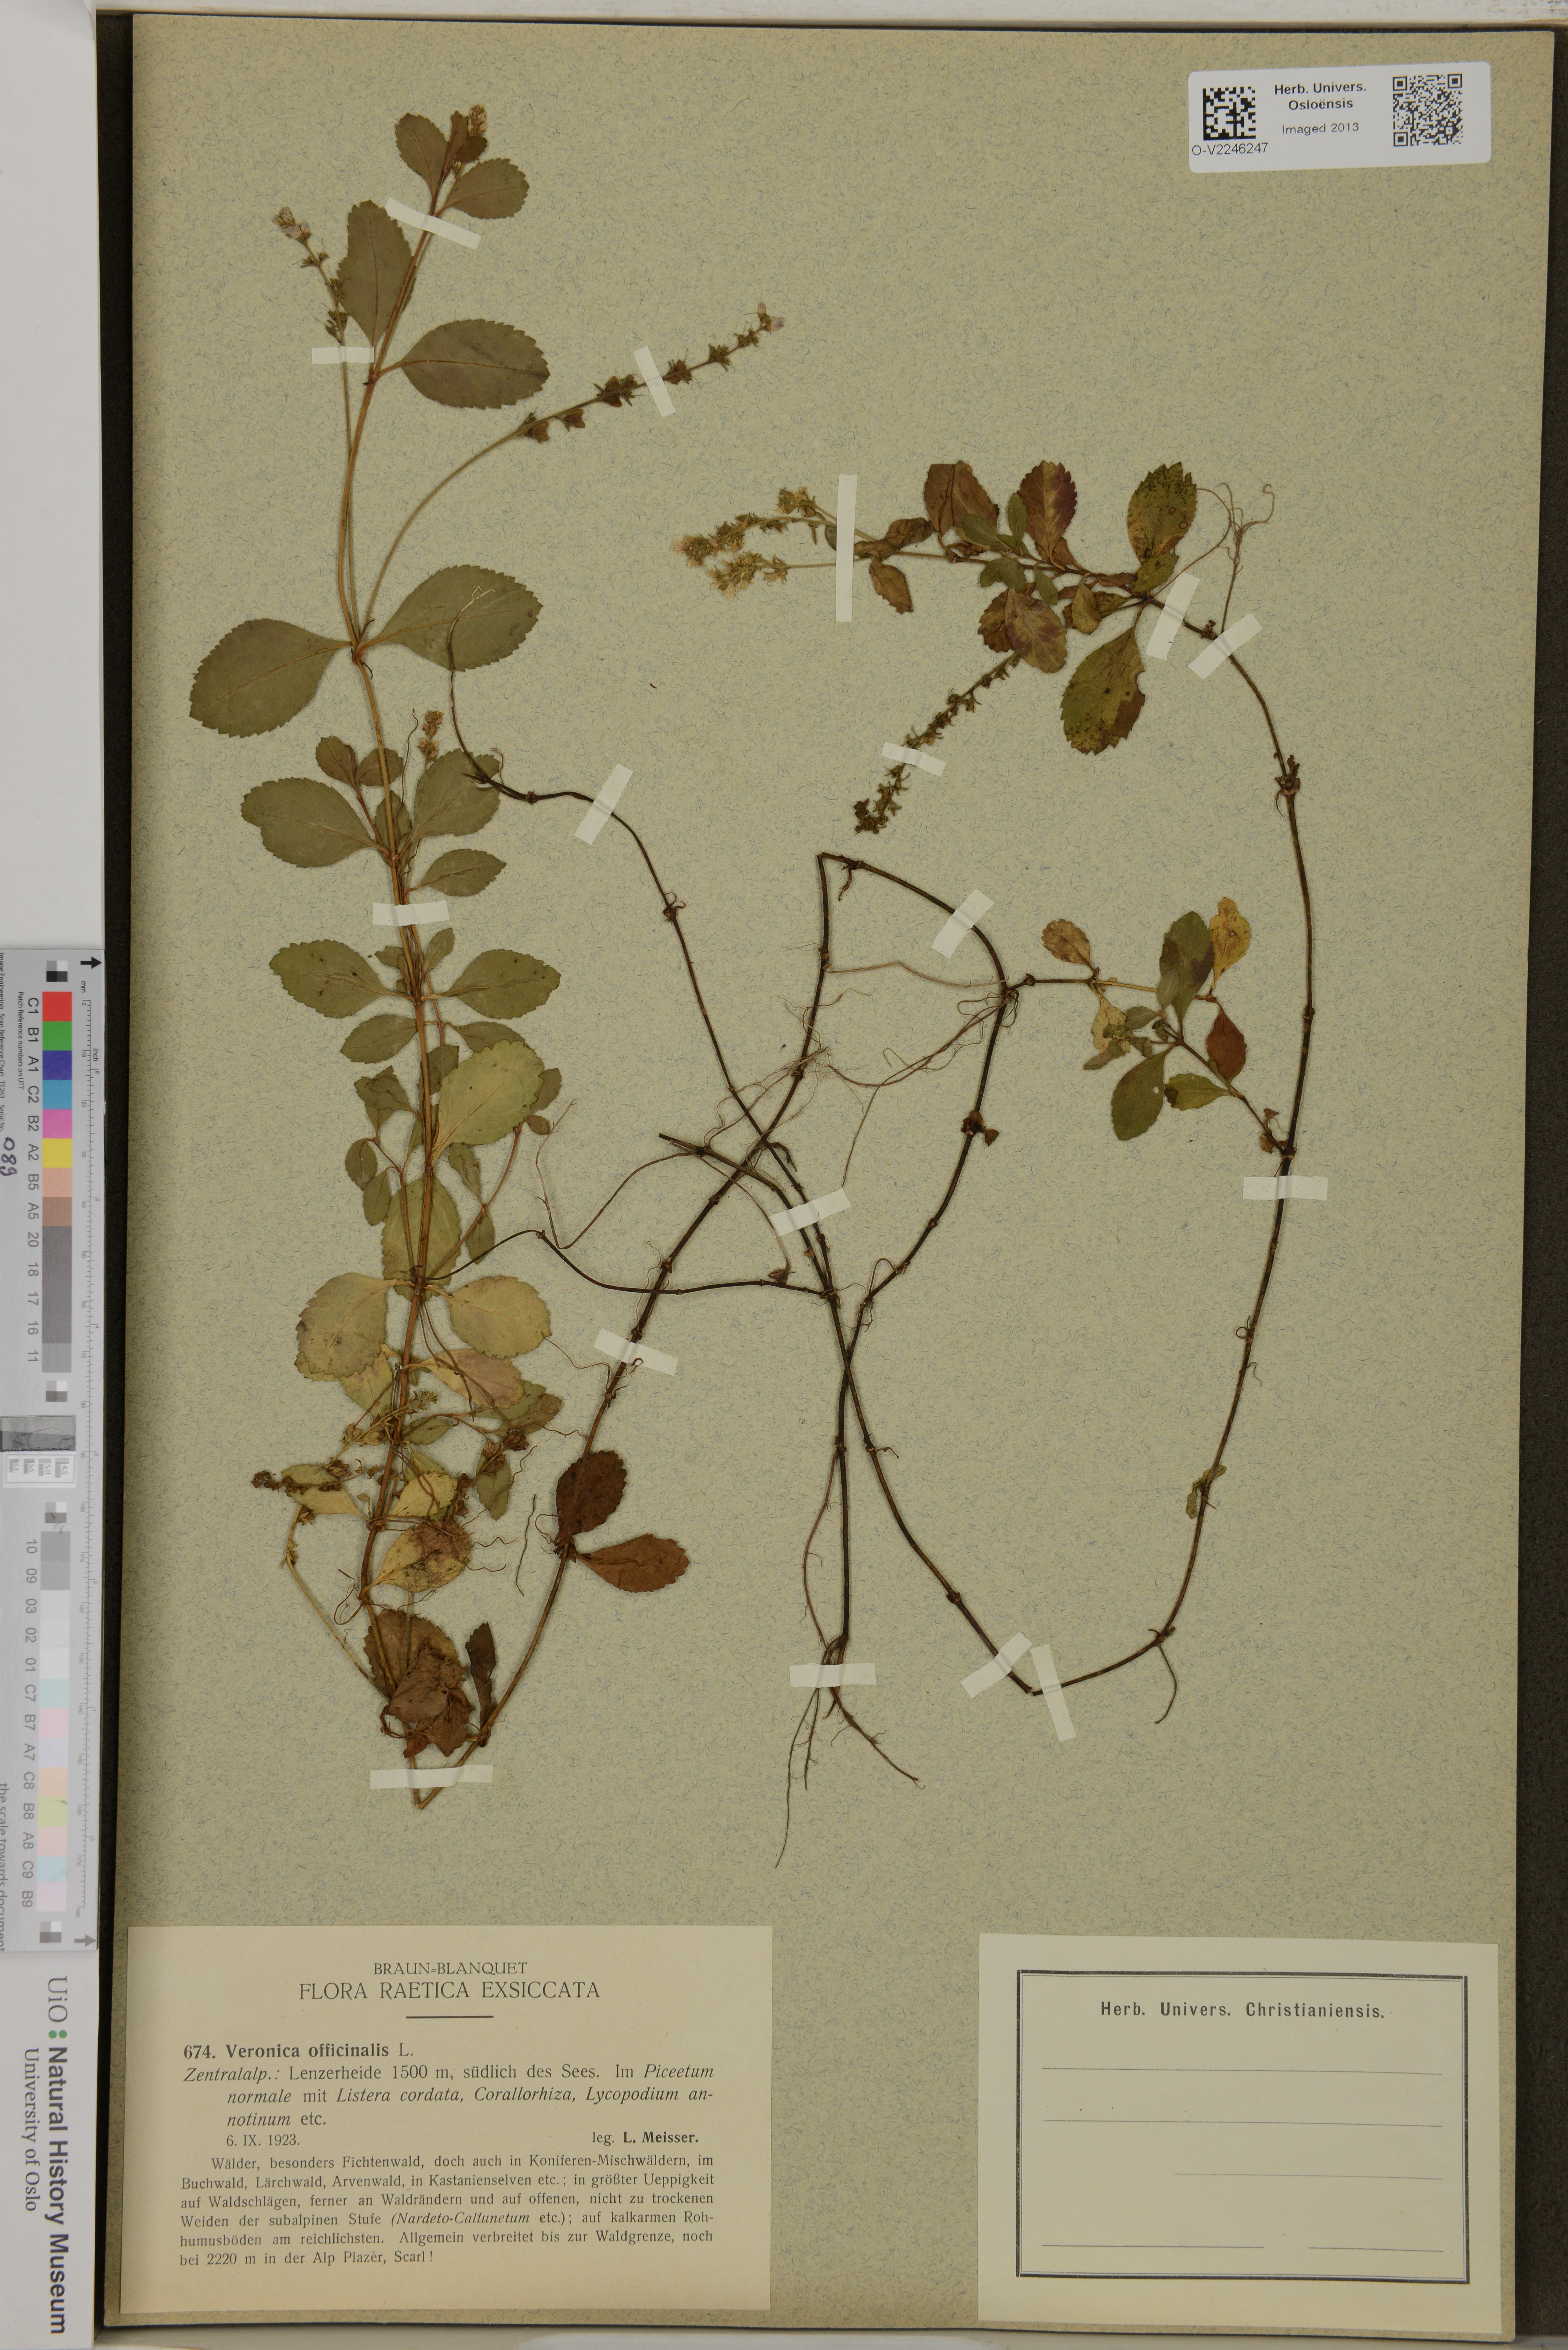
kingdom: Plantae
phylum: Tracheophyta
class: Magnoliopsida
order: Lamiales
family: Plantaginaceae
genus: Veronica
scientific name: Veronica officinalis
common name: Common speedwell
